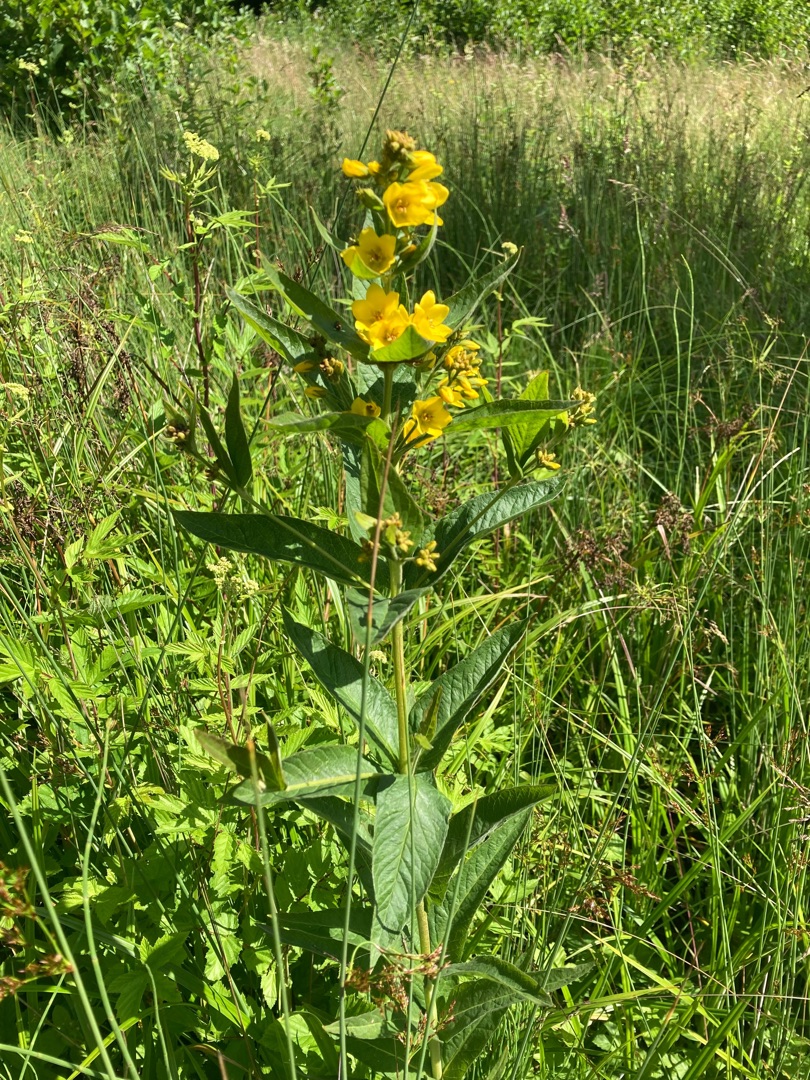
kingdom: Plantae
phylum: Tracheophyta
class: Magnoliopsida
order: Ericales
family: Primulaceae
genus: Lysimachia
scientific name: Lysimachia vulgaris
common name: Almindelig fredløs
